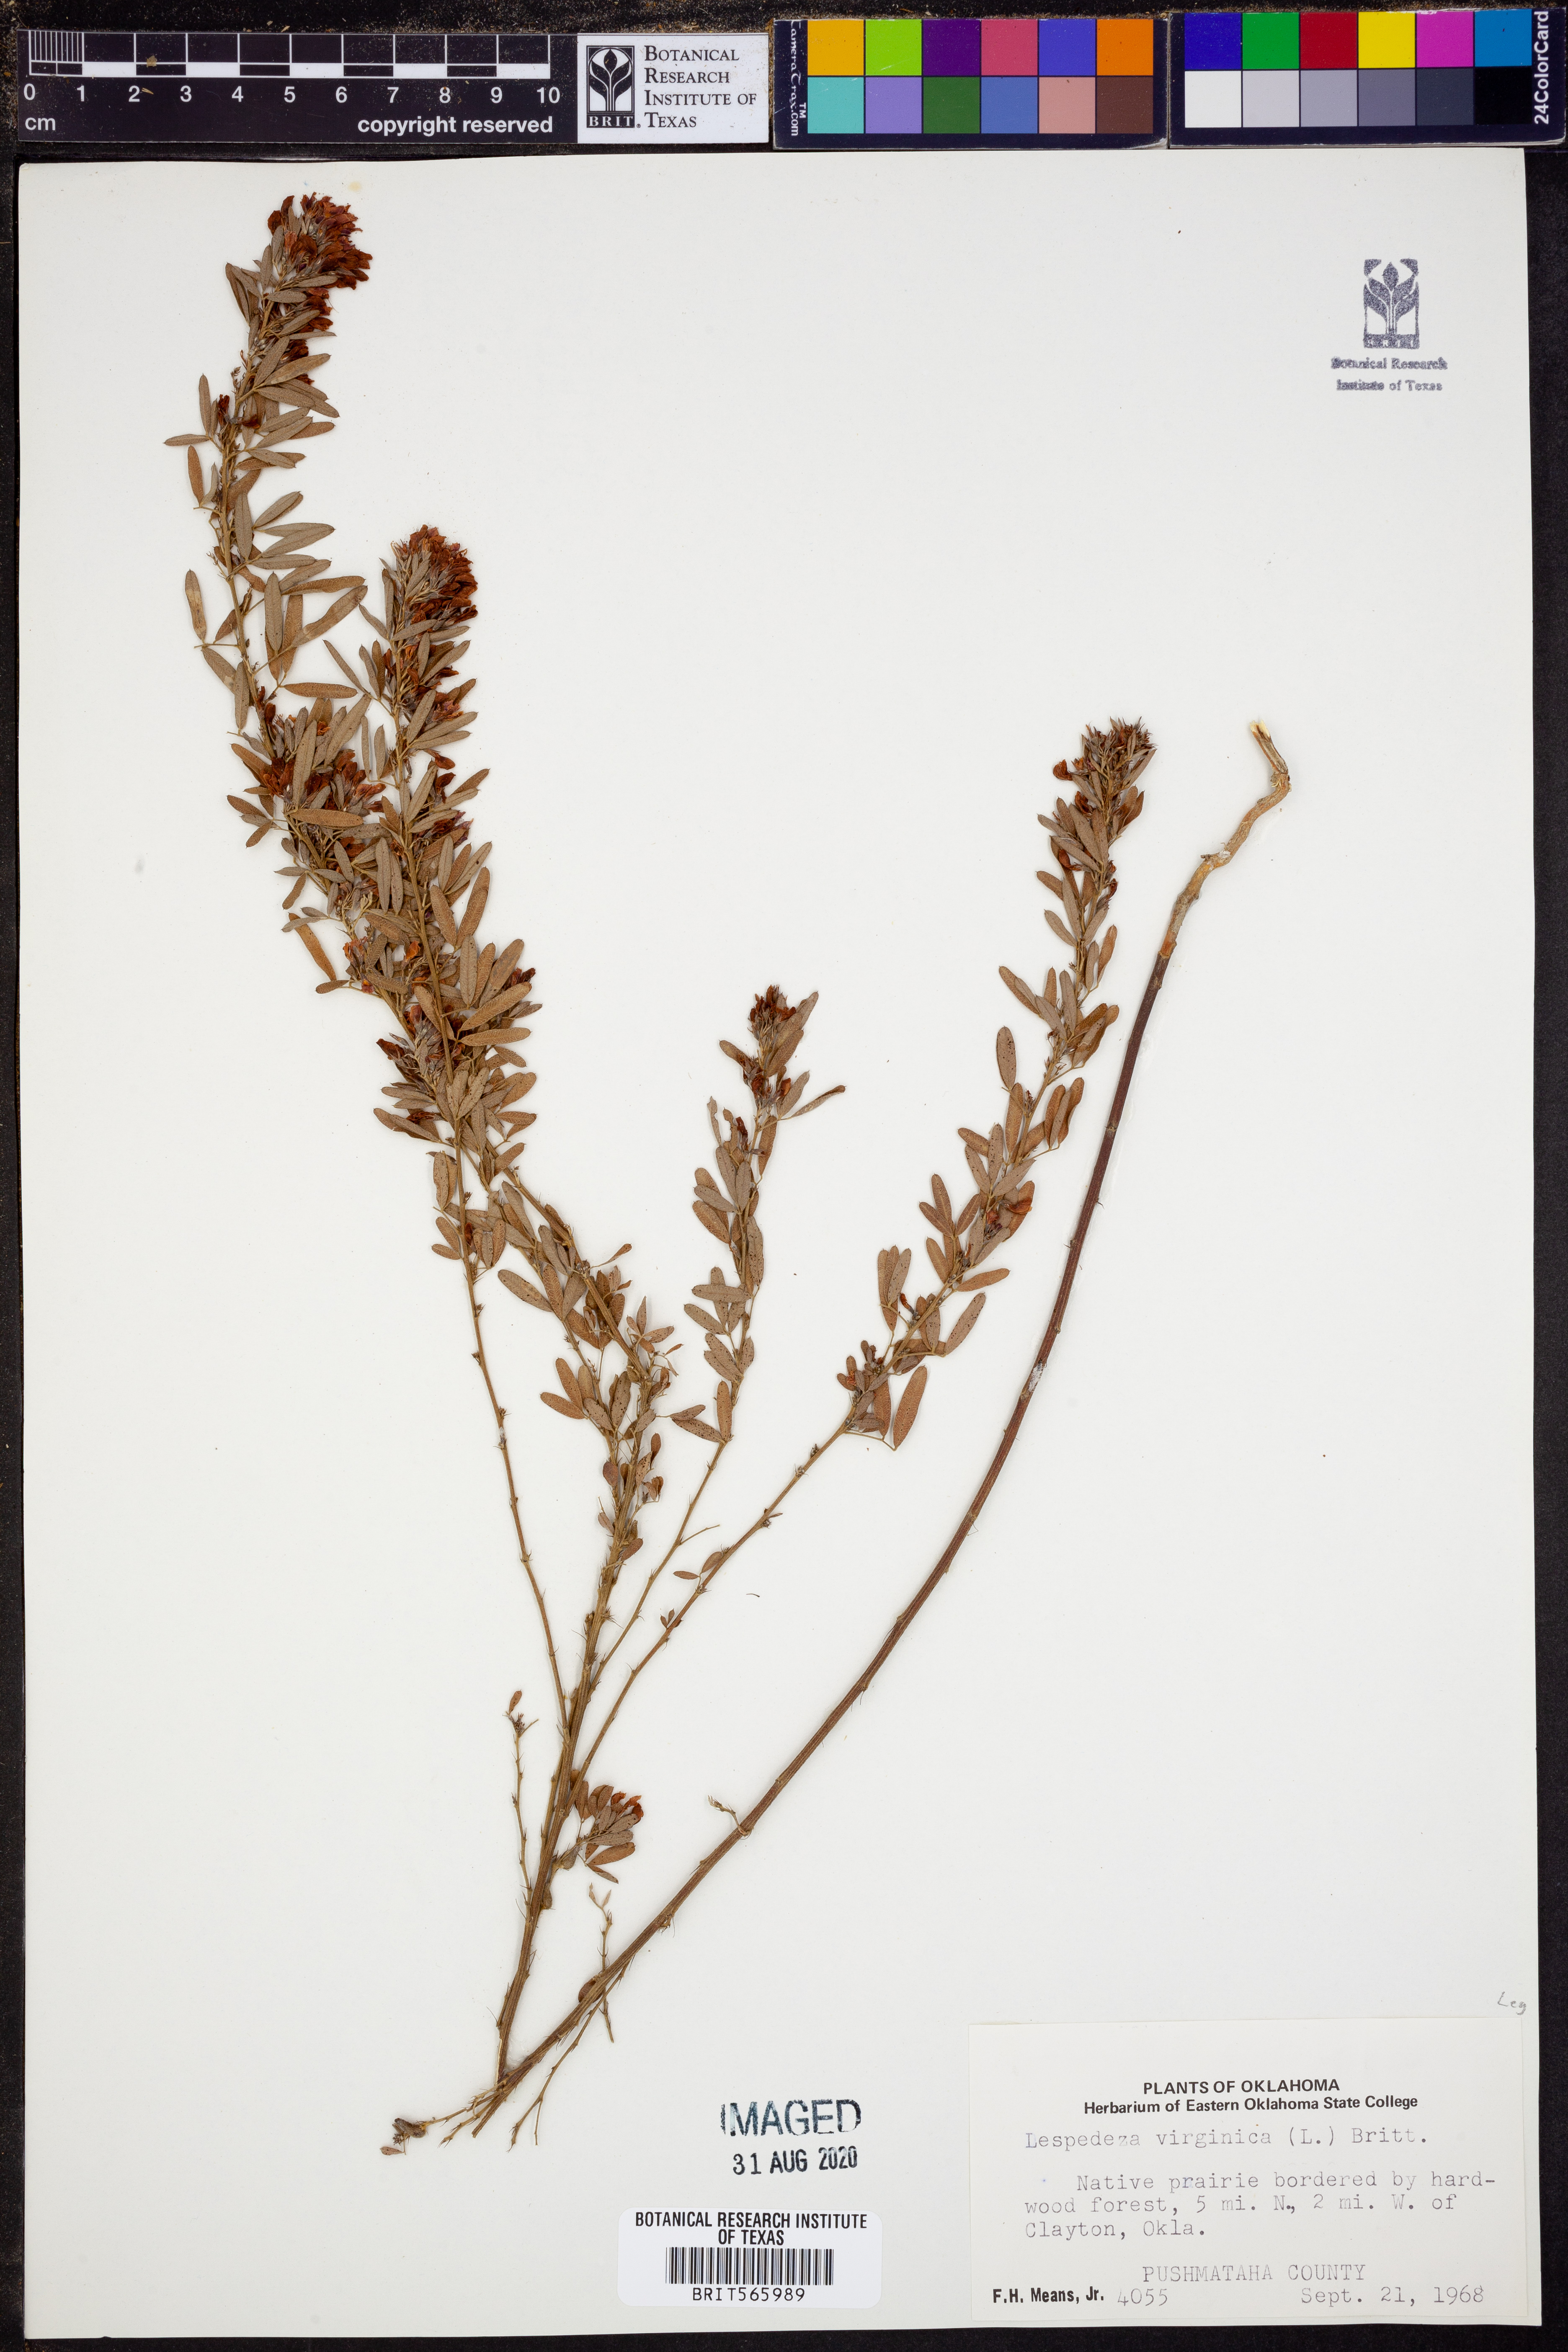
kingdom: Plantae
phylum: Tracheophyta
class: Magnoliopsida
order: Fabales
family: Fabaceae
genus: Lespedeza
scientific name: Lespedeza virginica
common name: Slender bush-clover
